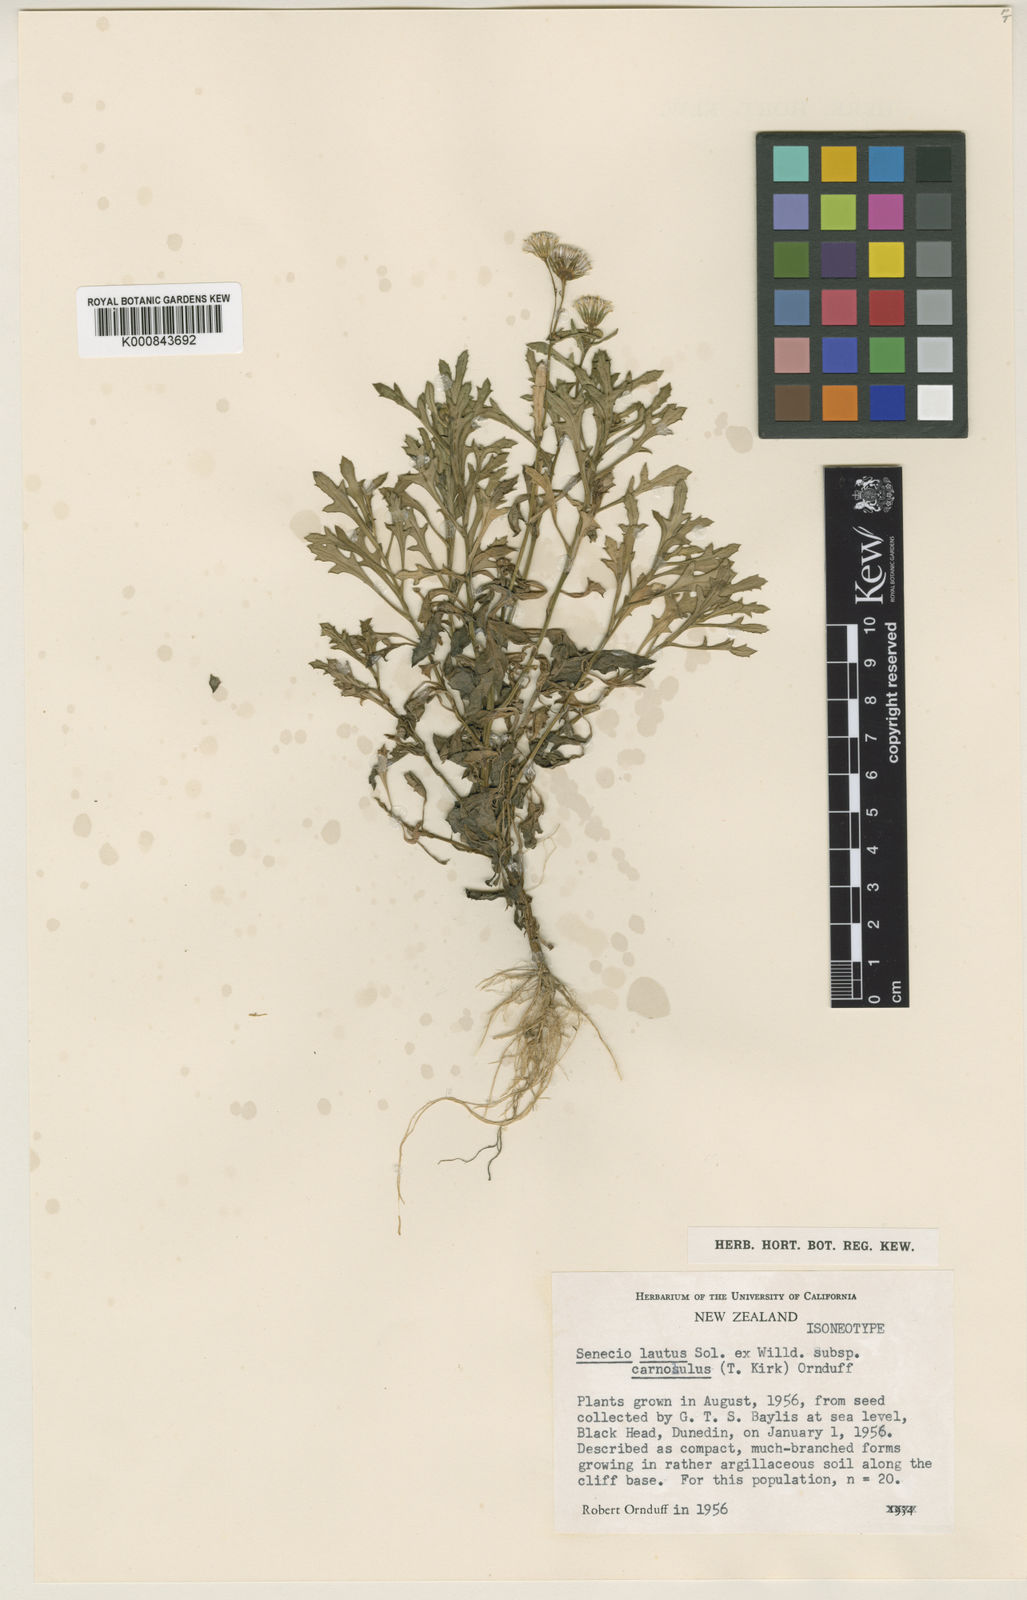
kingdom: Plantae
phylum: Tracheophyta
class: Magnoliopsida
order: Asterales
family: Asteraceae
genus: Senecio
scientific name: Senecio
